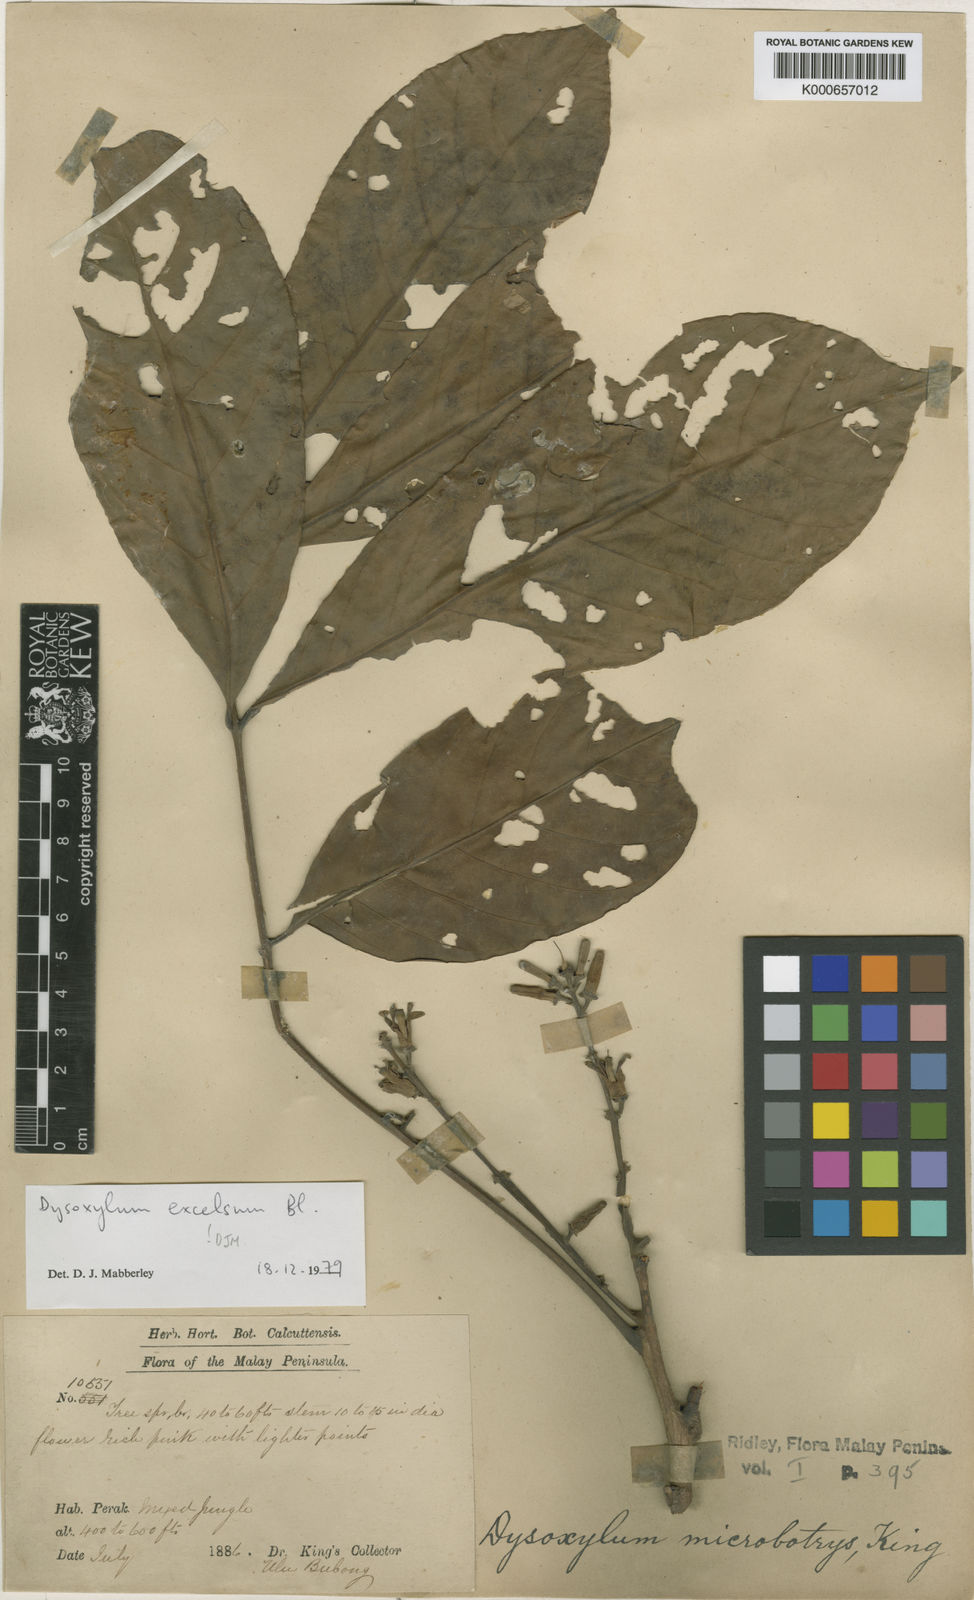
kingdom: Plantae
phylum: Tracheophyta
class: Magnoliopsida
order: Sapindales
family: Meliaceae
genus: Dysoxylum
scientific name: Dysoxylum excelsum
